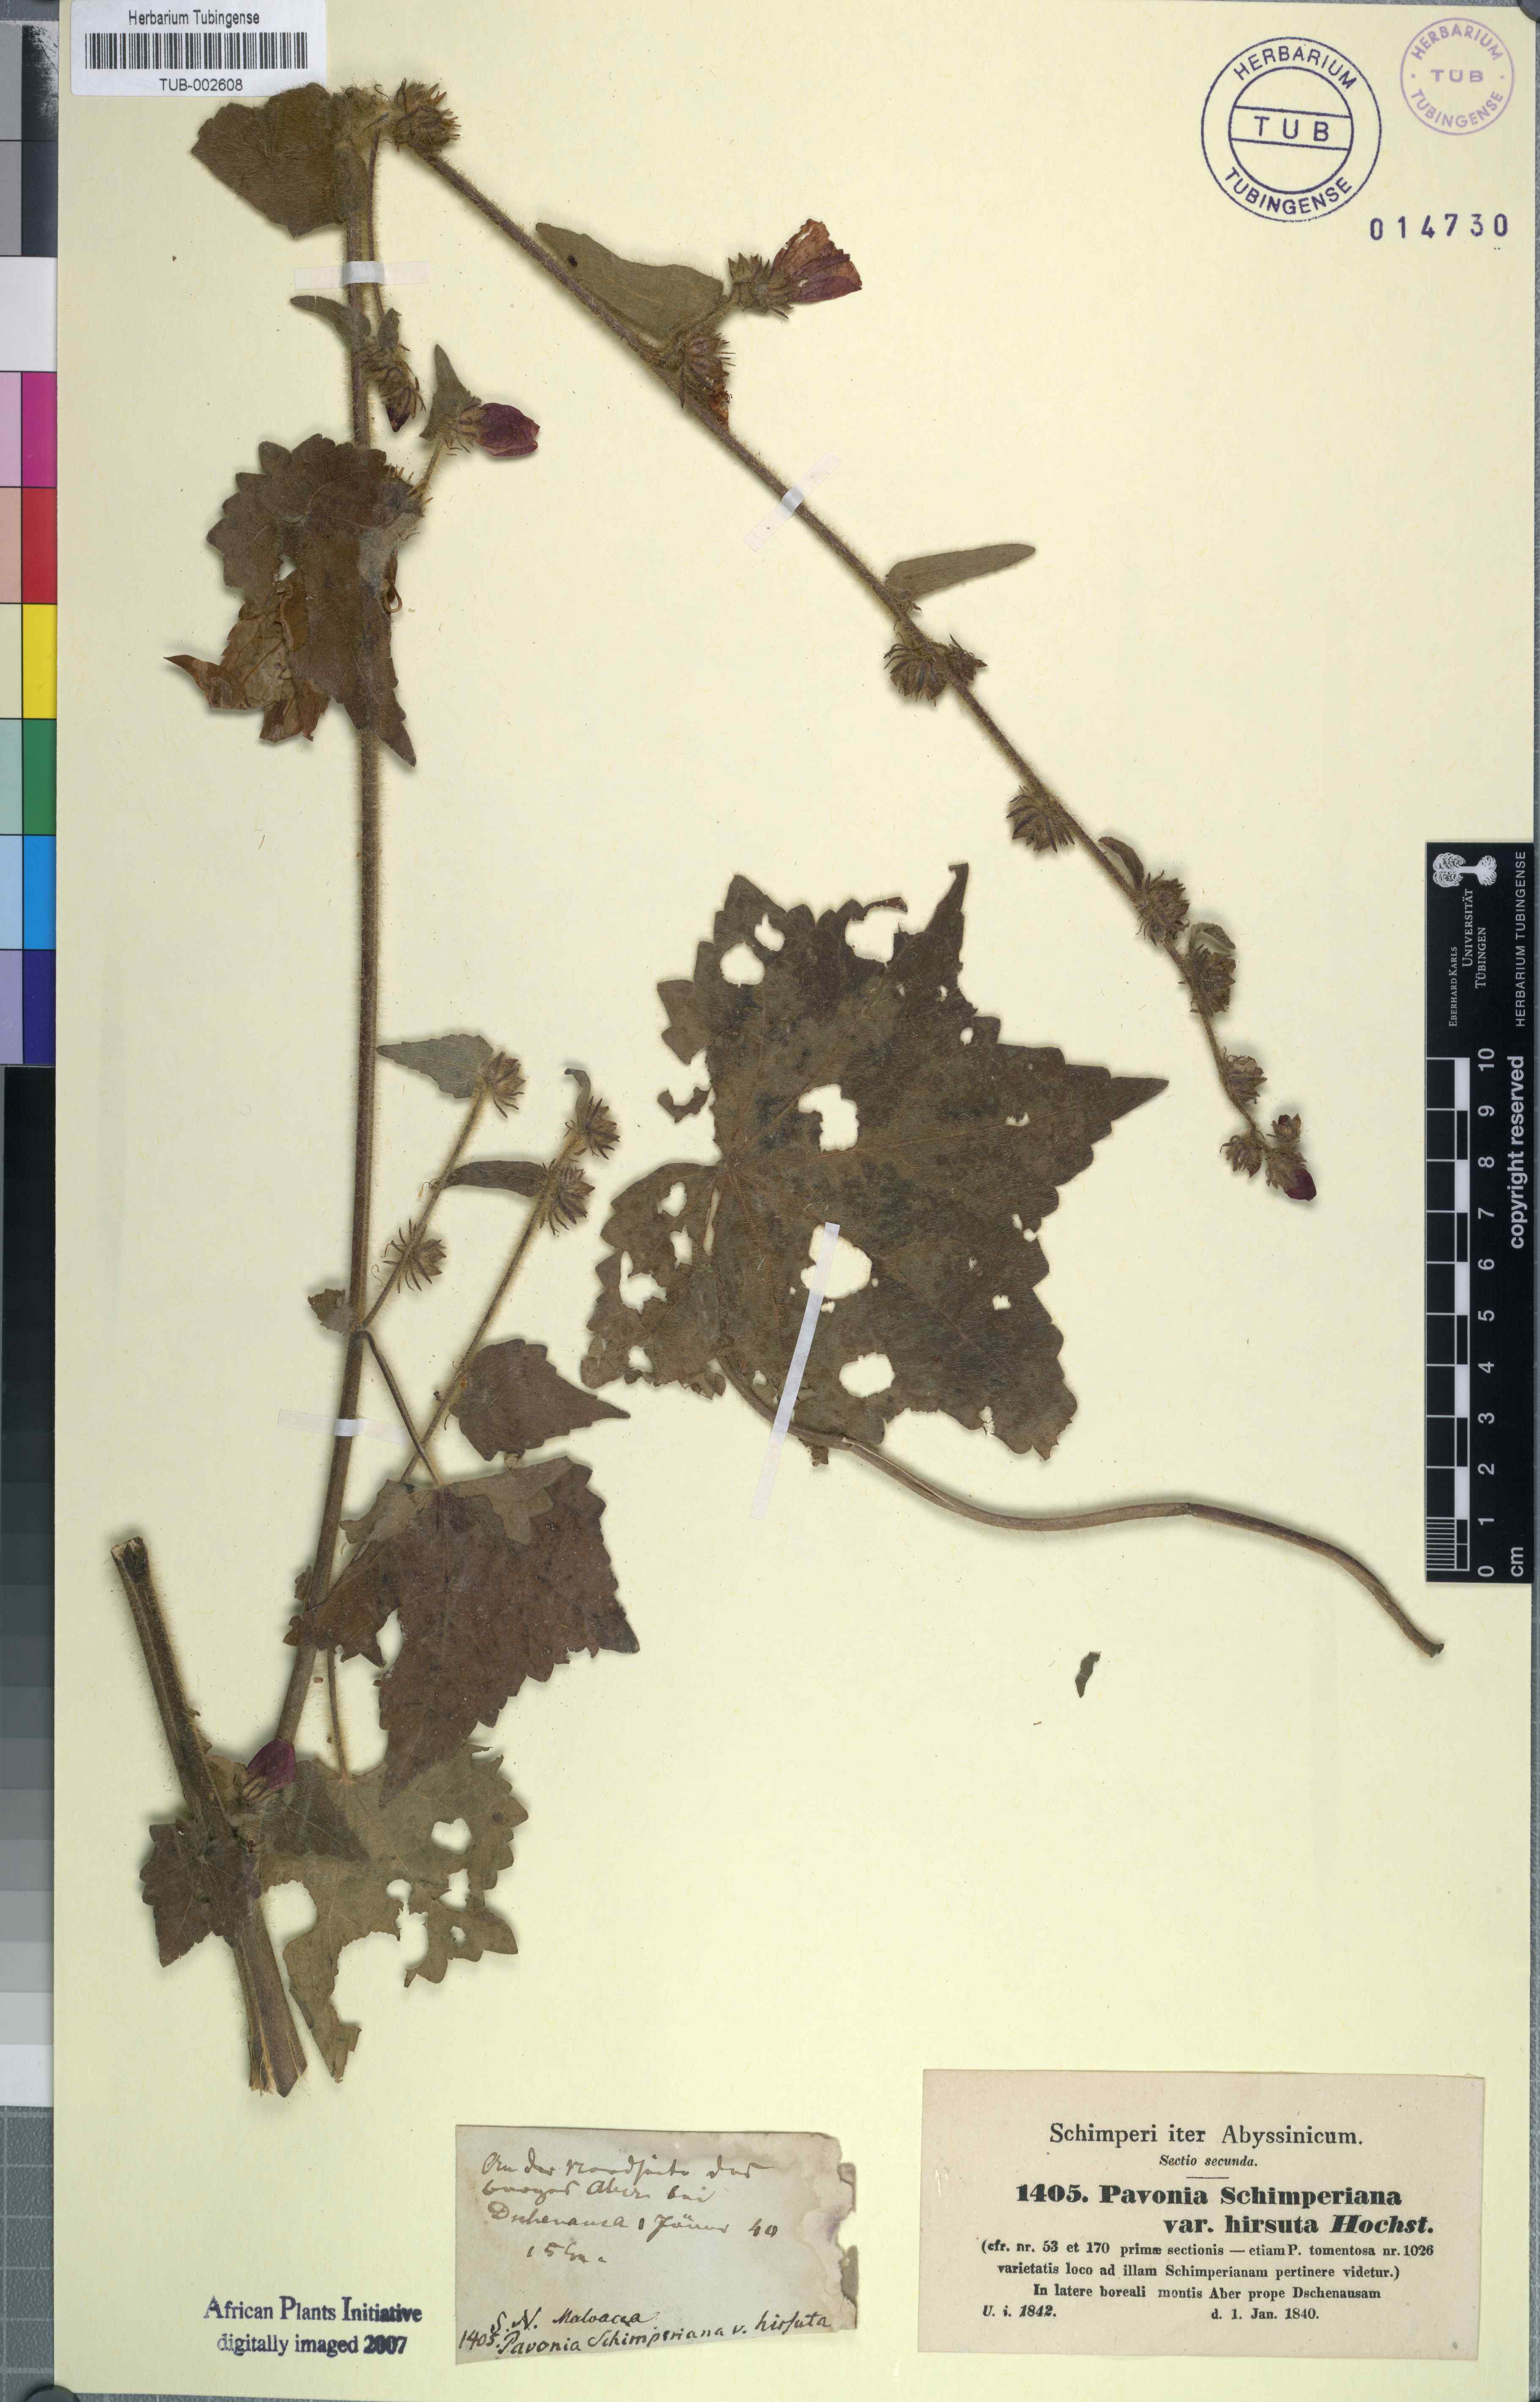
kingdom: Plantae
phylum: Tracheophyta
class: Magnoliopsida
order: Malvales
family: Malvaceae
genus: Pavonia
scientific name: Pavonia schimperiana
